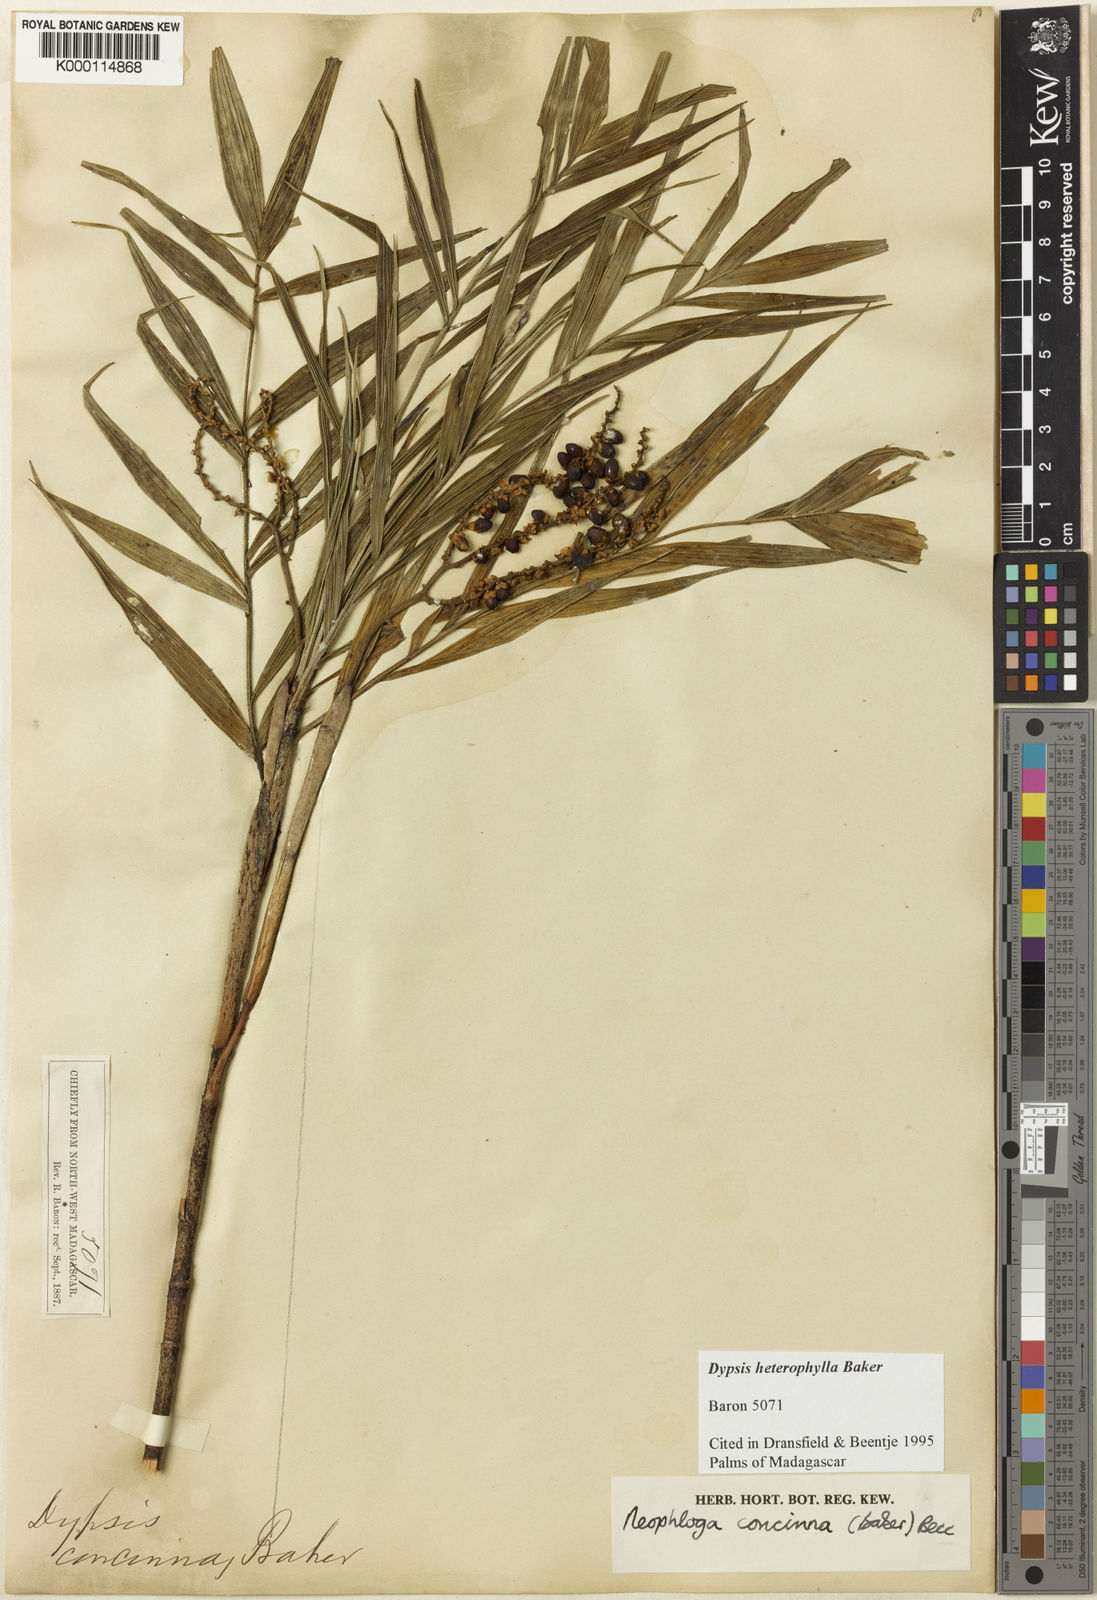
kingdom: Plantae
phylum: Tracheophyta
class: Liliopsida
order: Arecales
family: Arecaceae
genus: Dypsis
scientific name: Dypsis heterophylla
